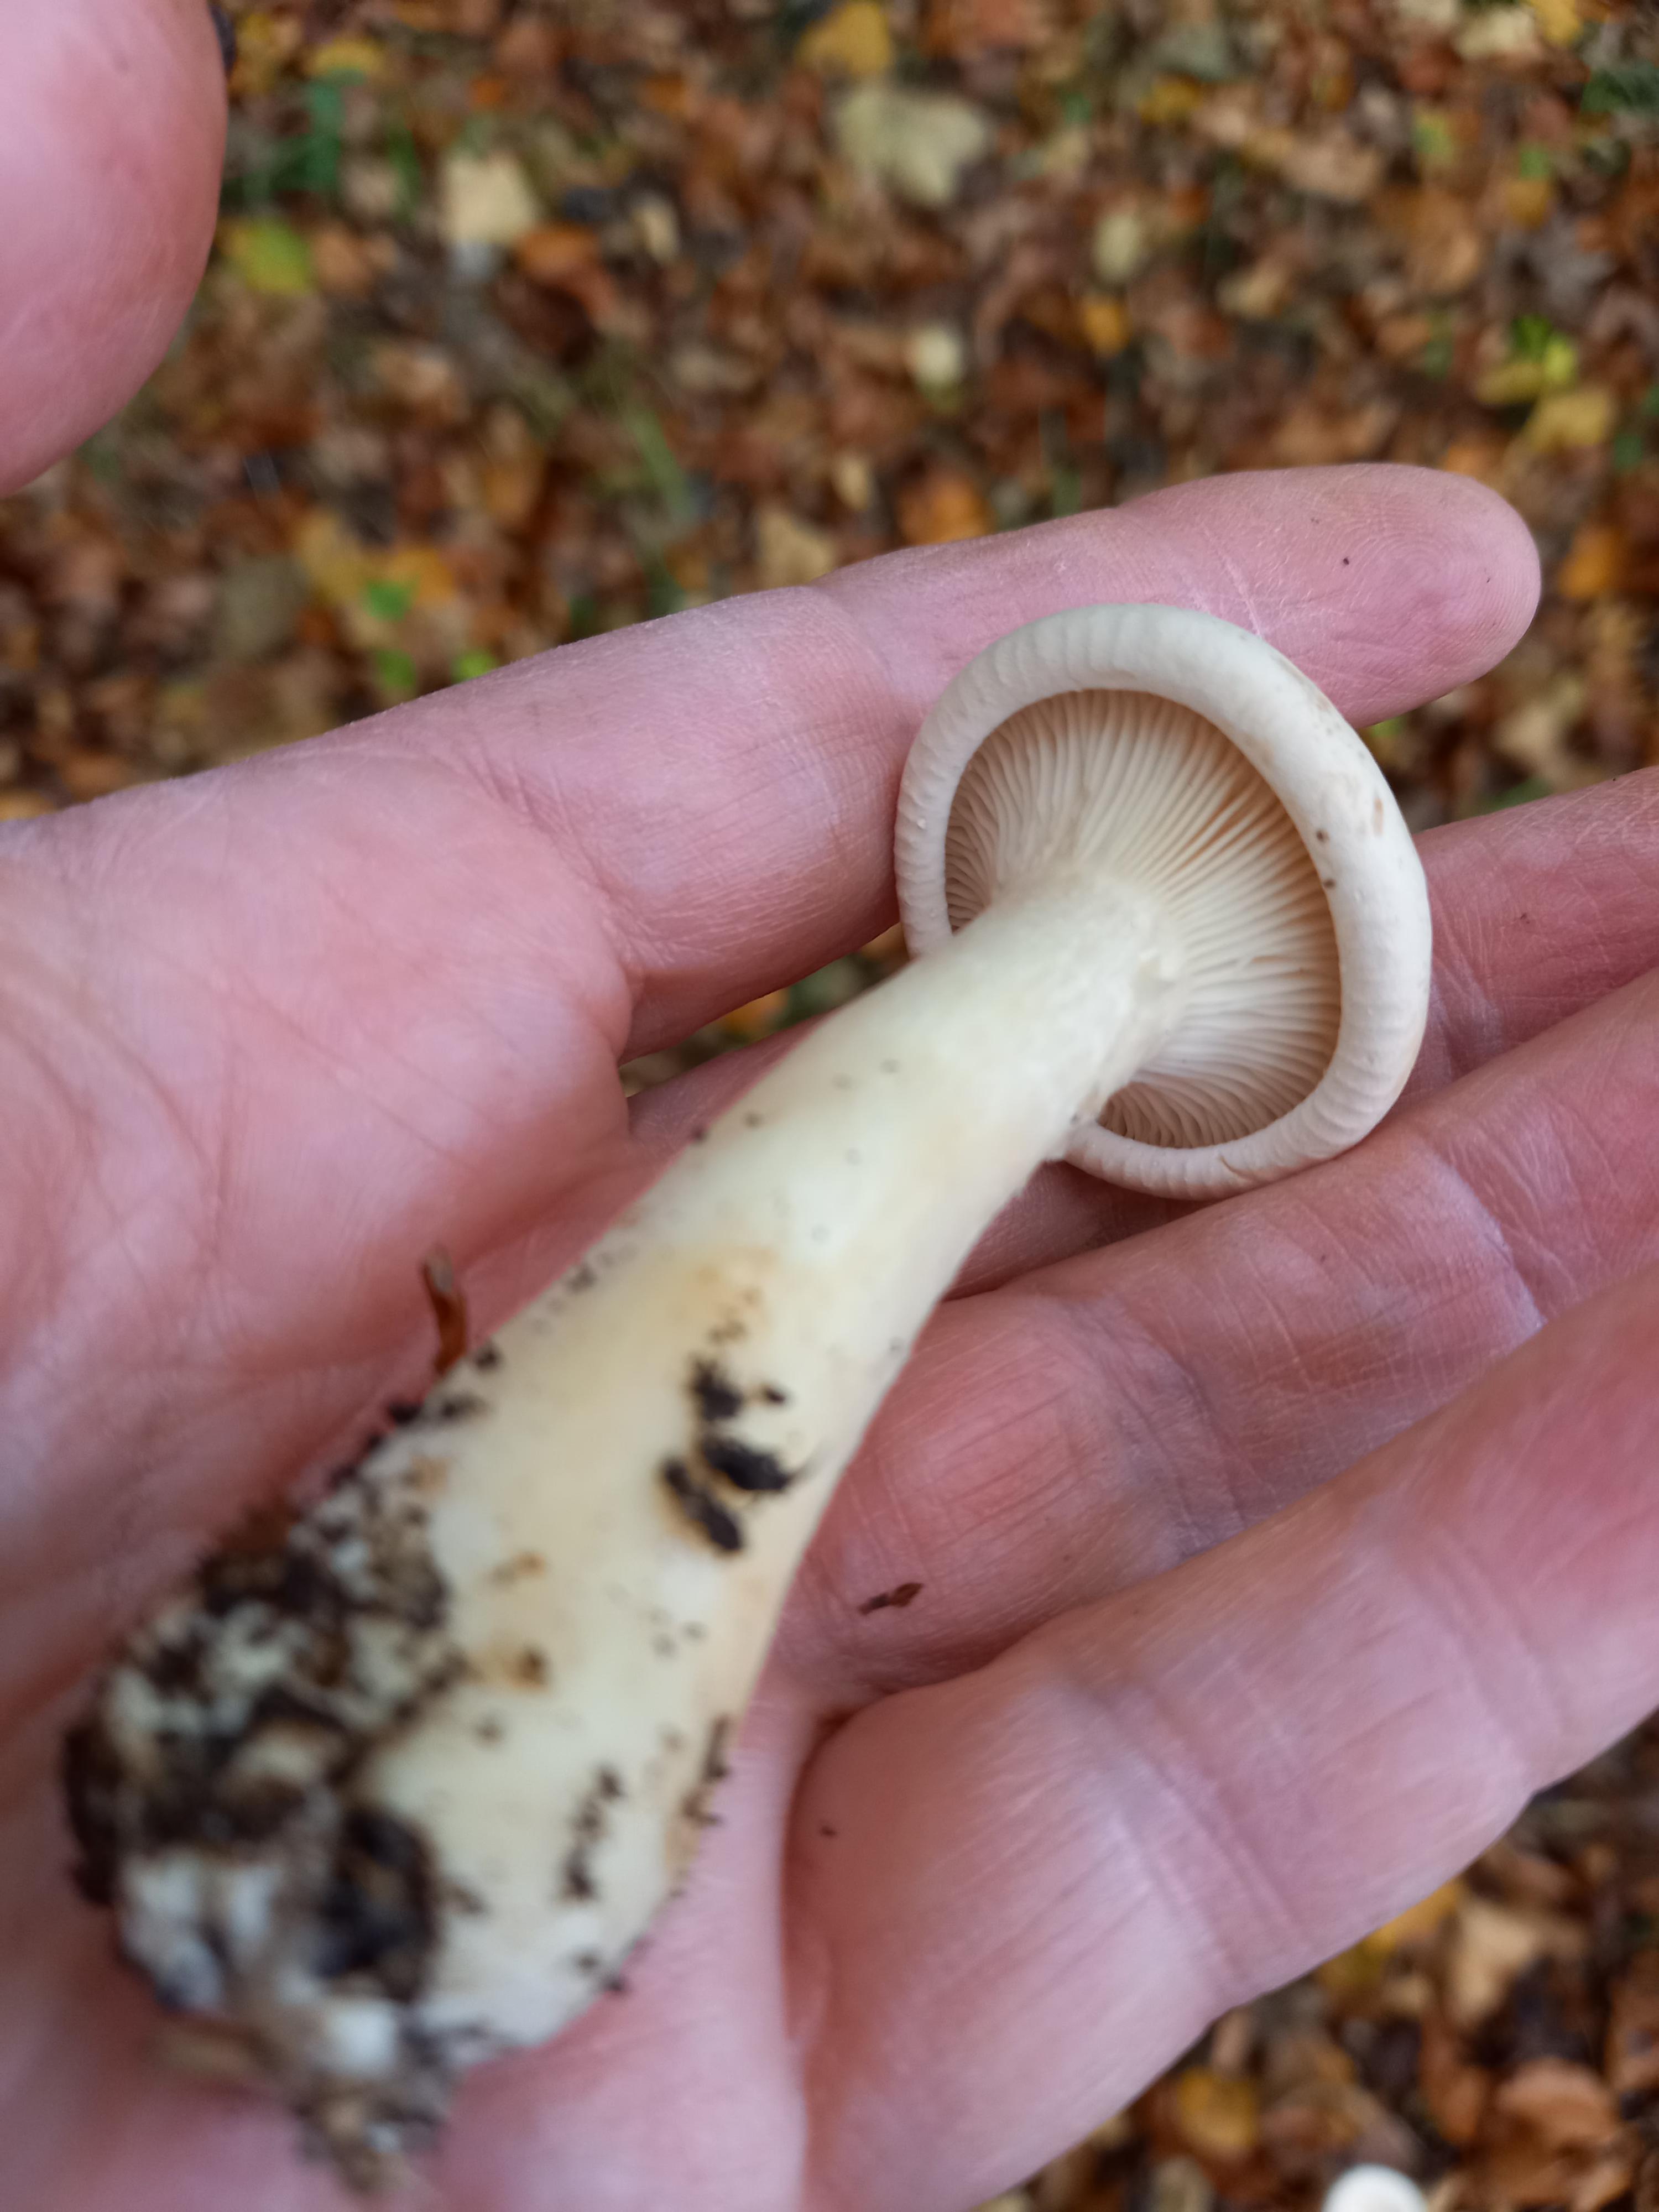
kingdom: Fungi
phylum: Basidiomycota
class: Agaricomycetes
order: Agaricales
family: Tricholomataceae
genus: Infundibulicybe
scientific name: Infundibulicybe geotropa
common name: stor tragthat
